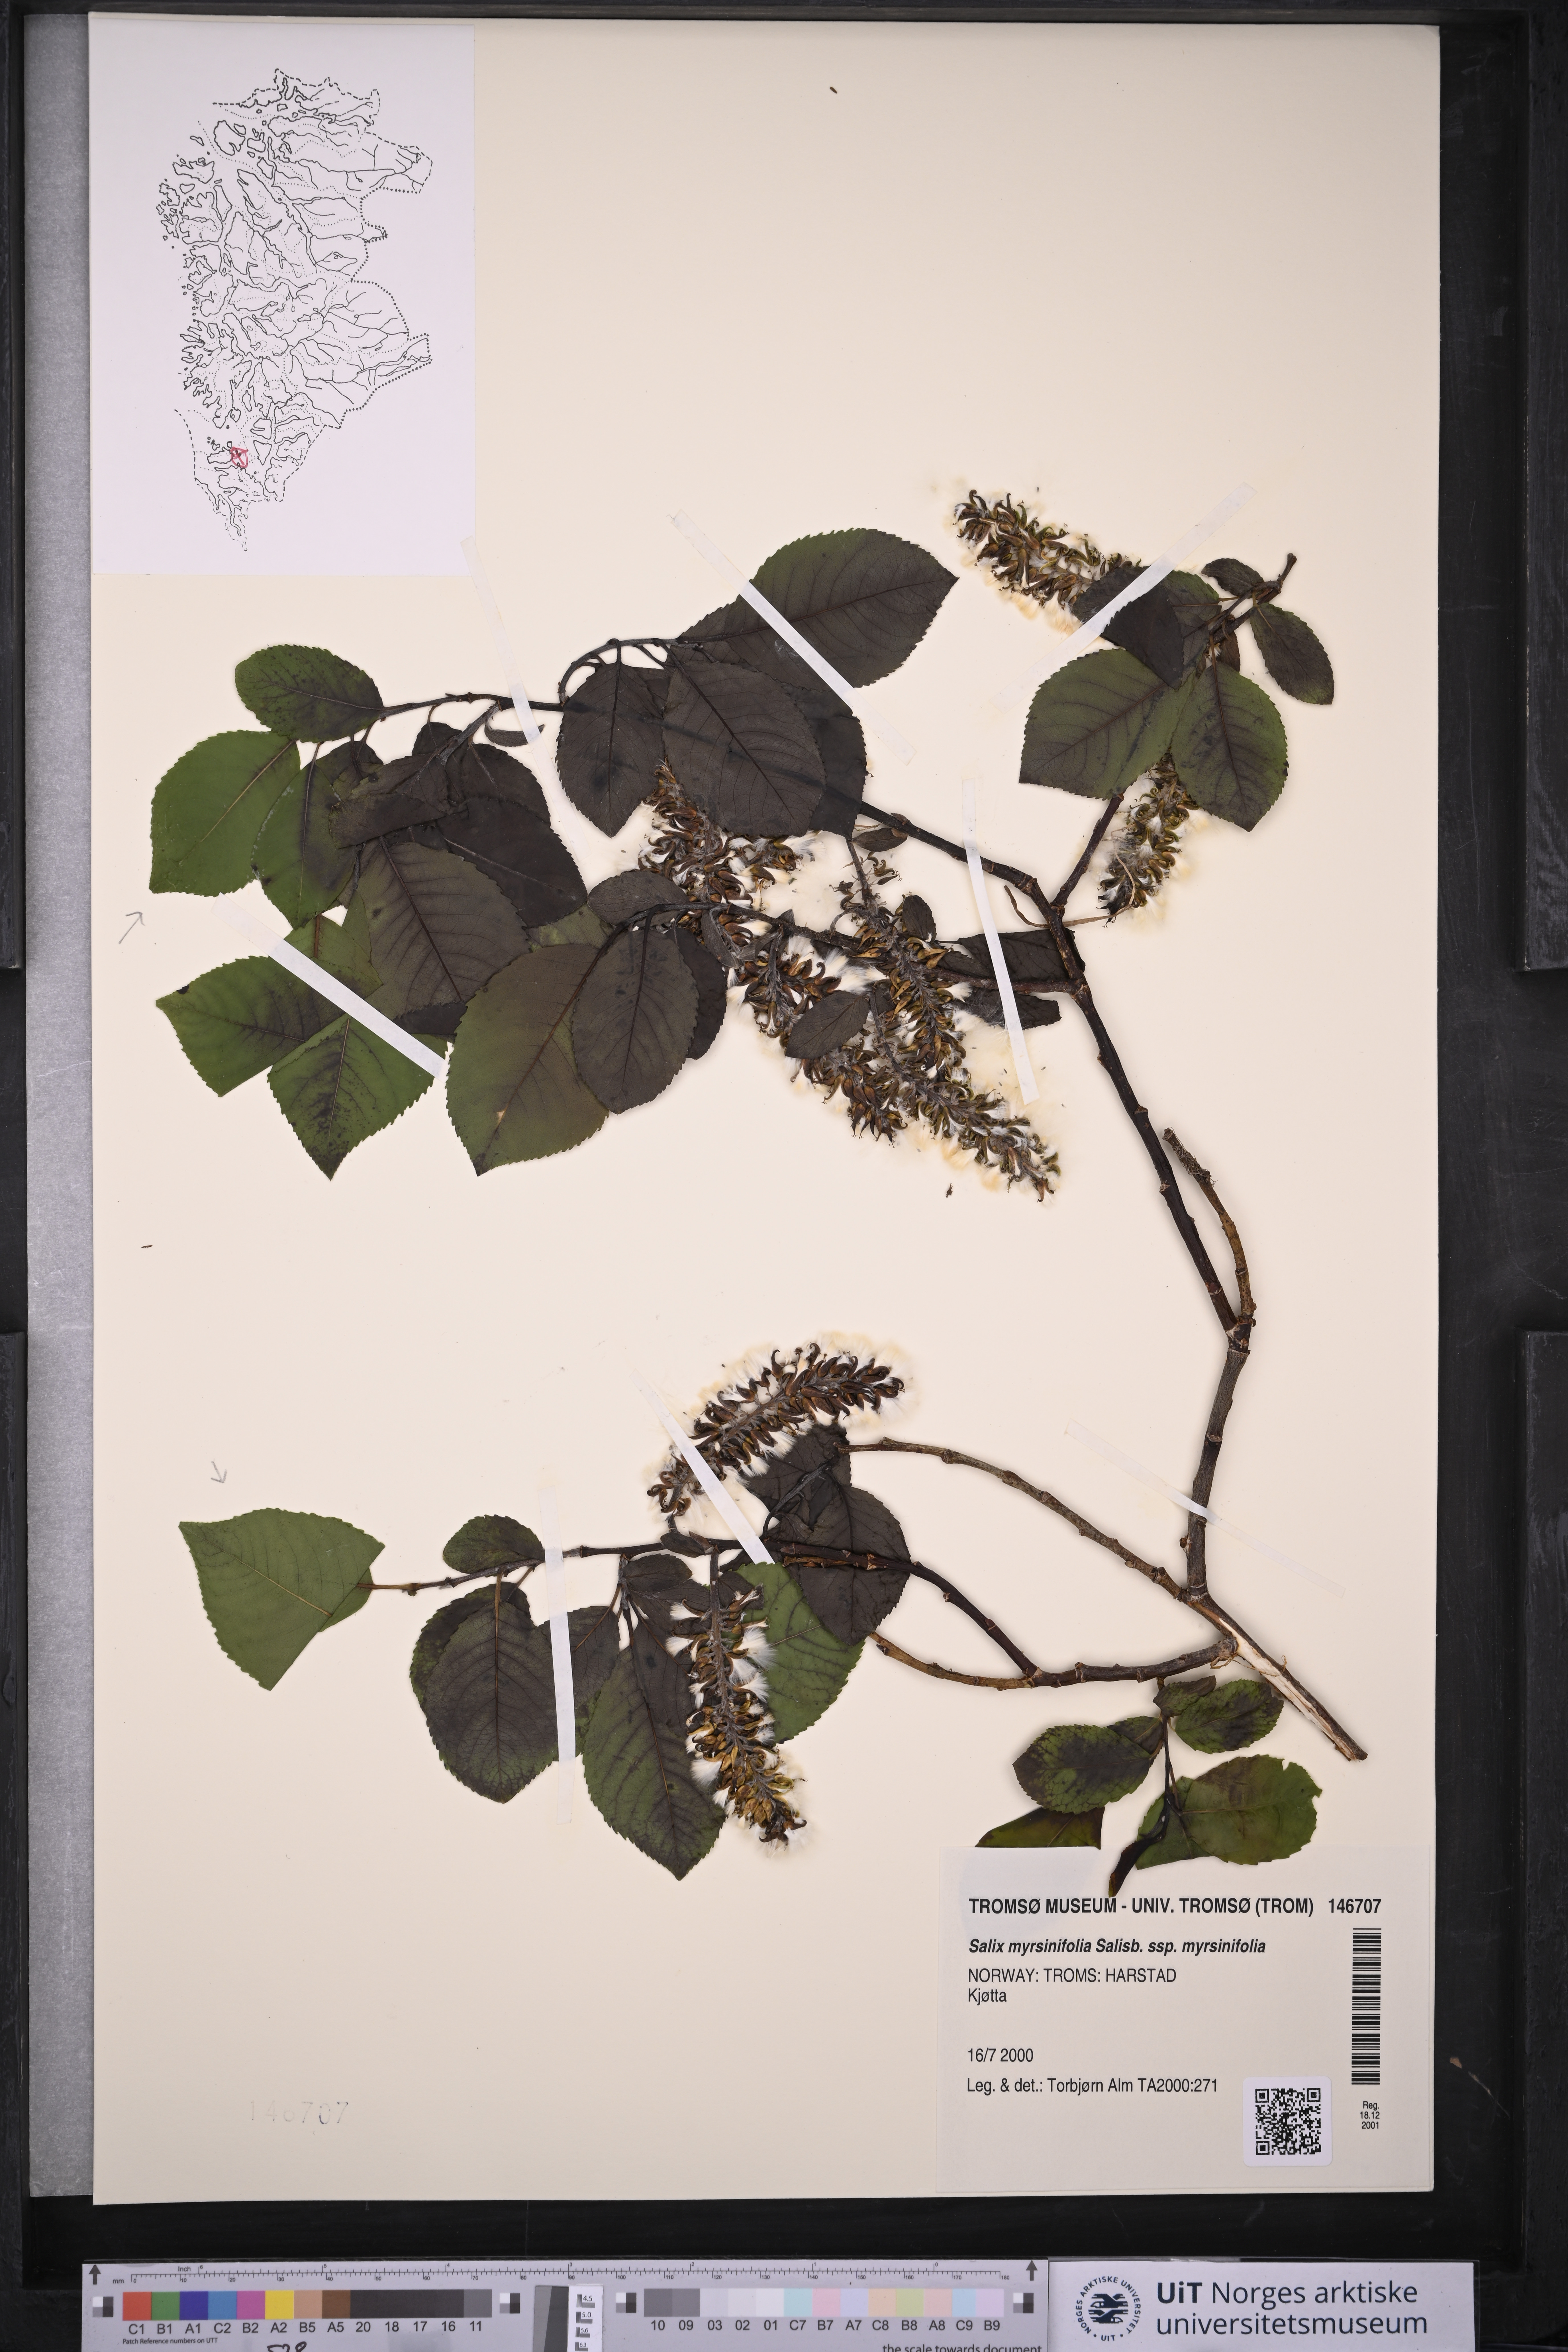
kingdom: Plantae
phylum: Tracheophyta
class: Magnoliopsida
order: Malpighiales
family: Salicaceae
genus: Salix
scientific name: Salix myrsinifolia
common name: Dark-leaved willow
